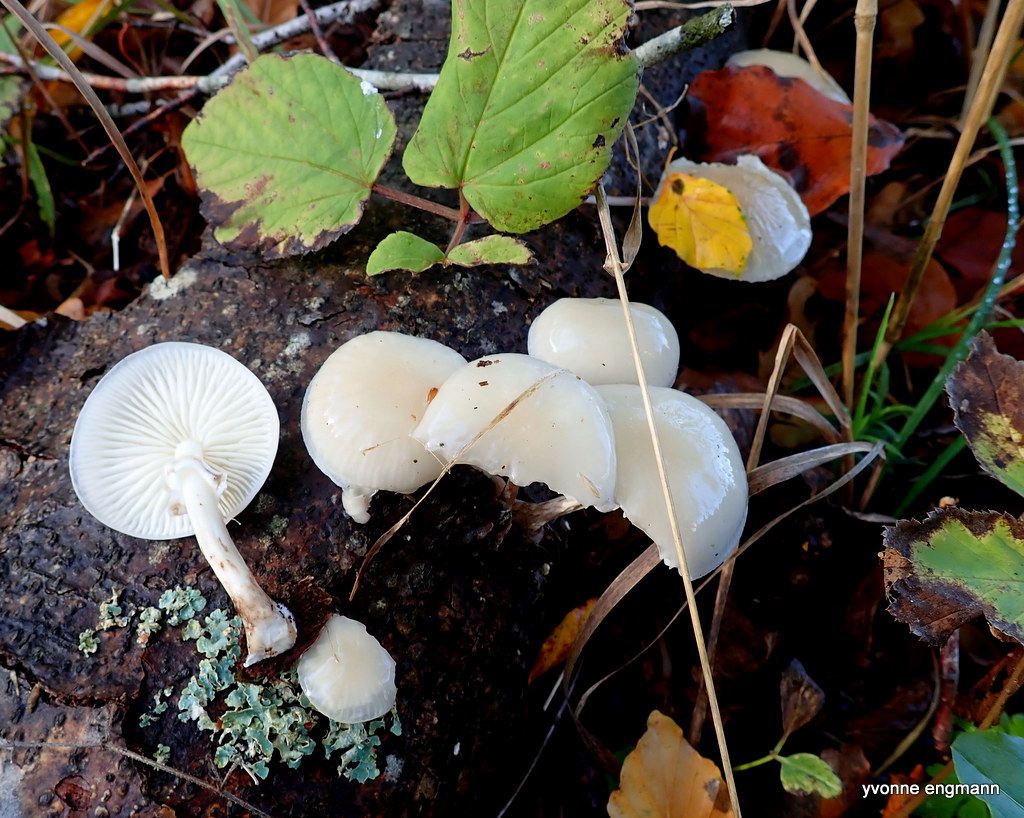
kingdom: Fungi
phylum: Basidiomycota
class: Agaricomycetes
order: Agaricales
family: Physalacriaceae
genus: Mucidula
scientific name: Mucidula mucida
